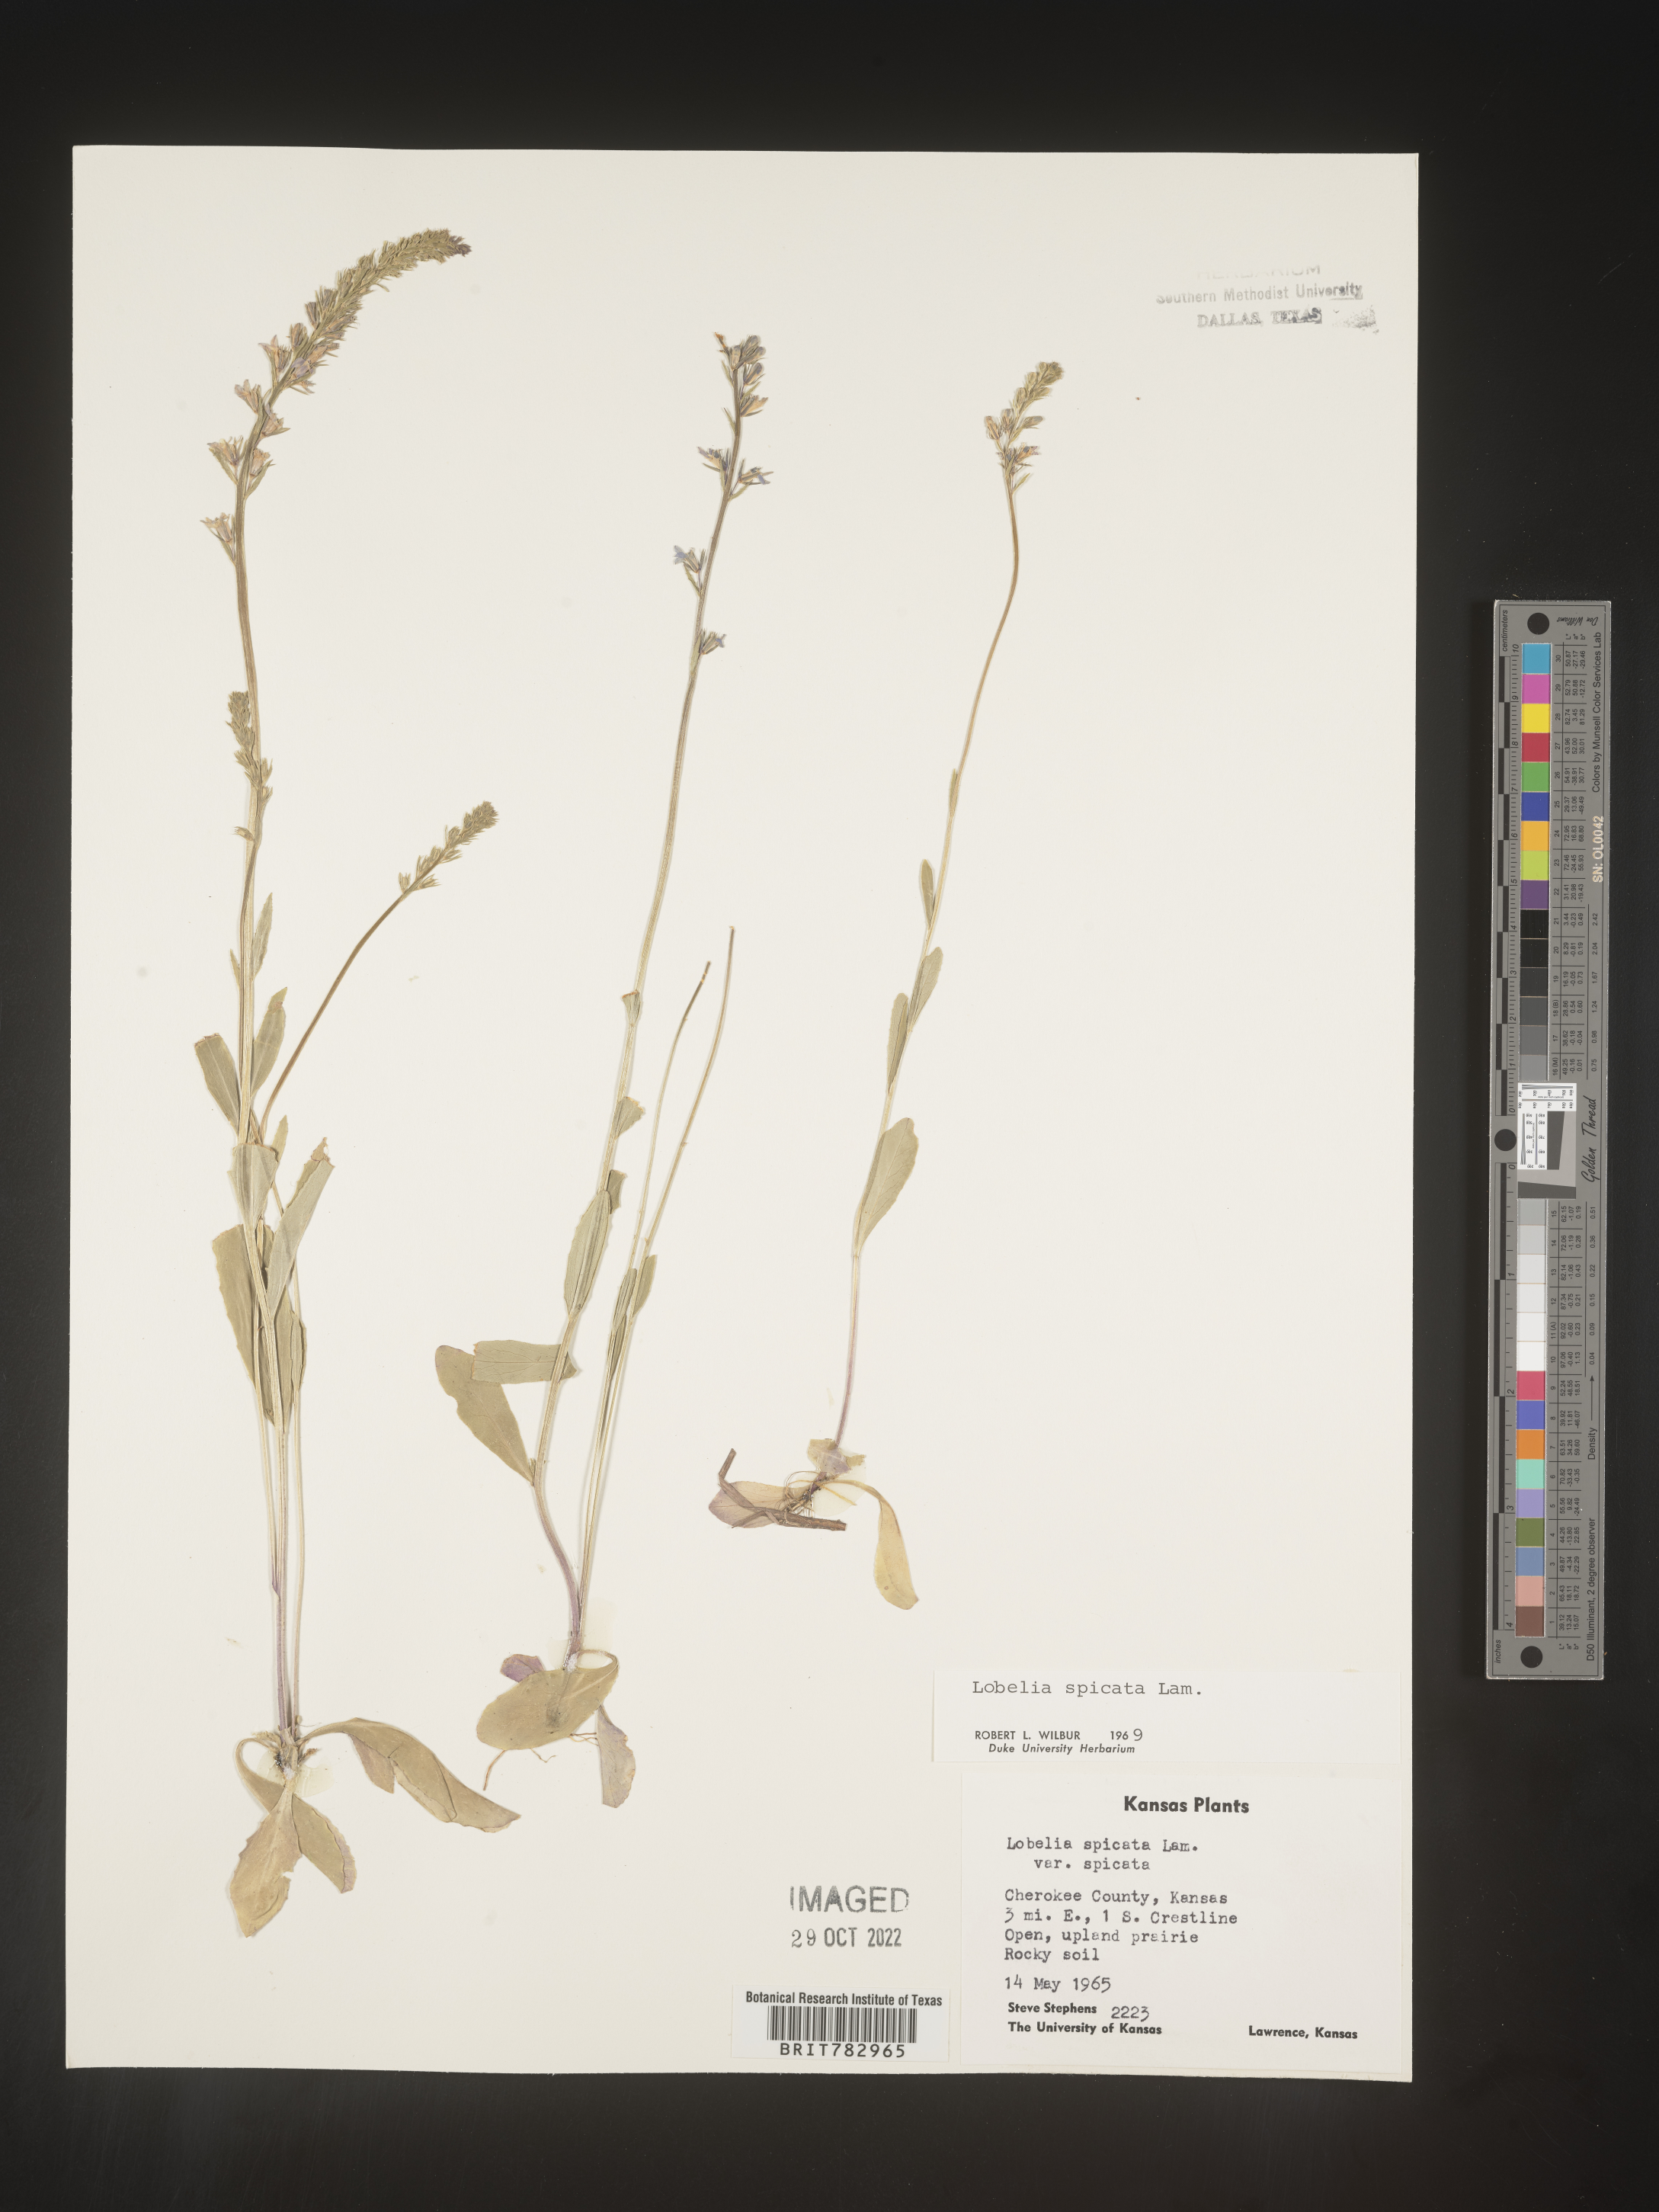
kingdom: Plantae
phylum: Tracheophyta
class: Magnoliopsida
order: Asterales
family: Campanulaceae
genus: Lobelia
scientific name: Lobelia spicata
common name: Pale-spike lobelia
